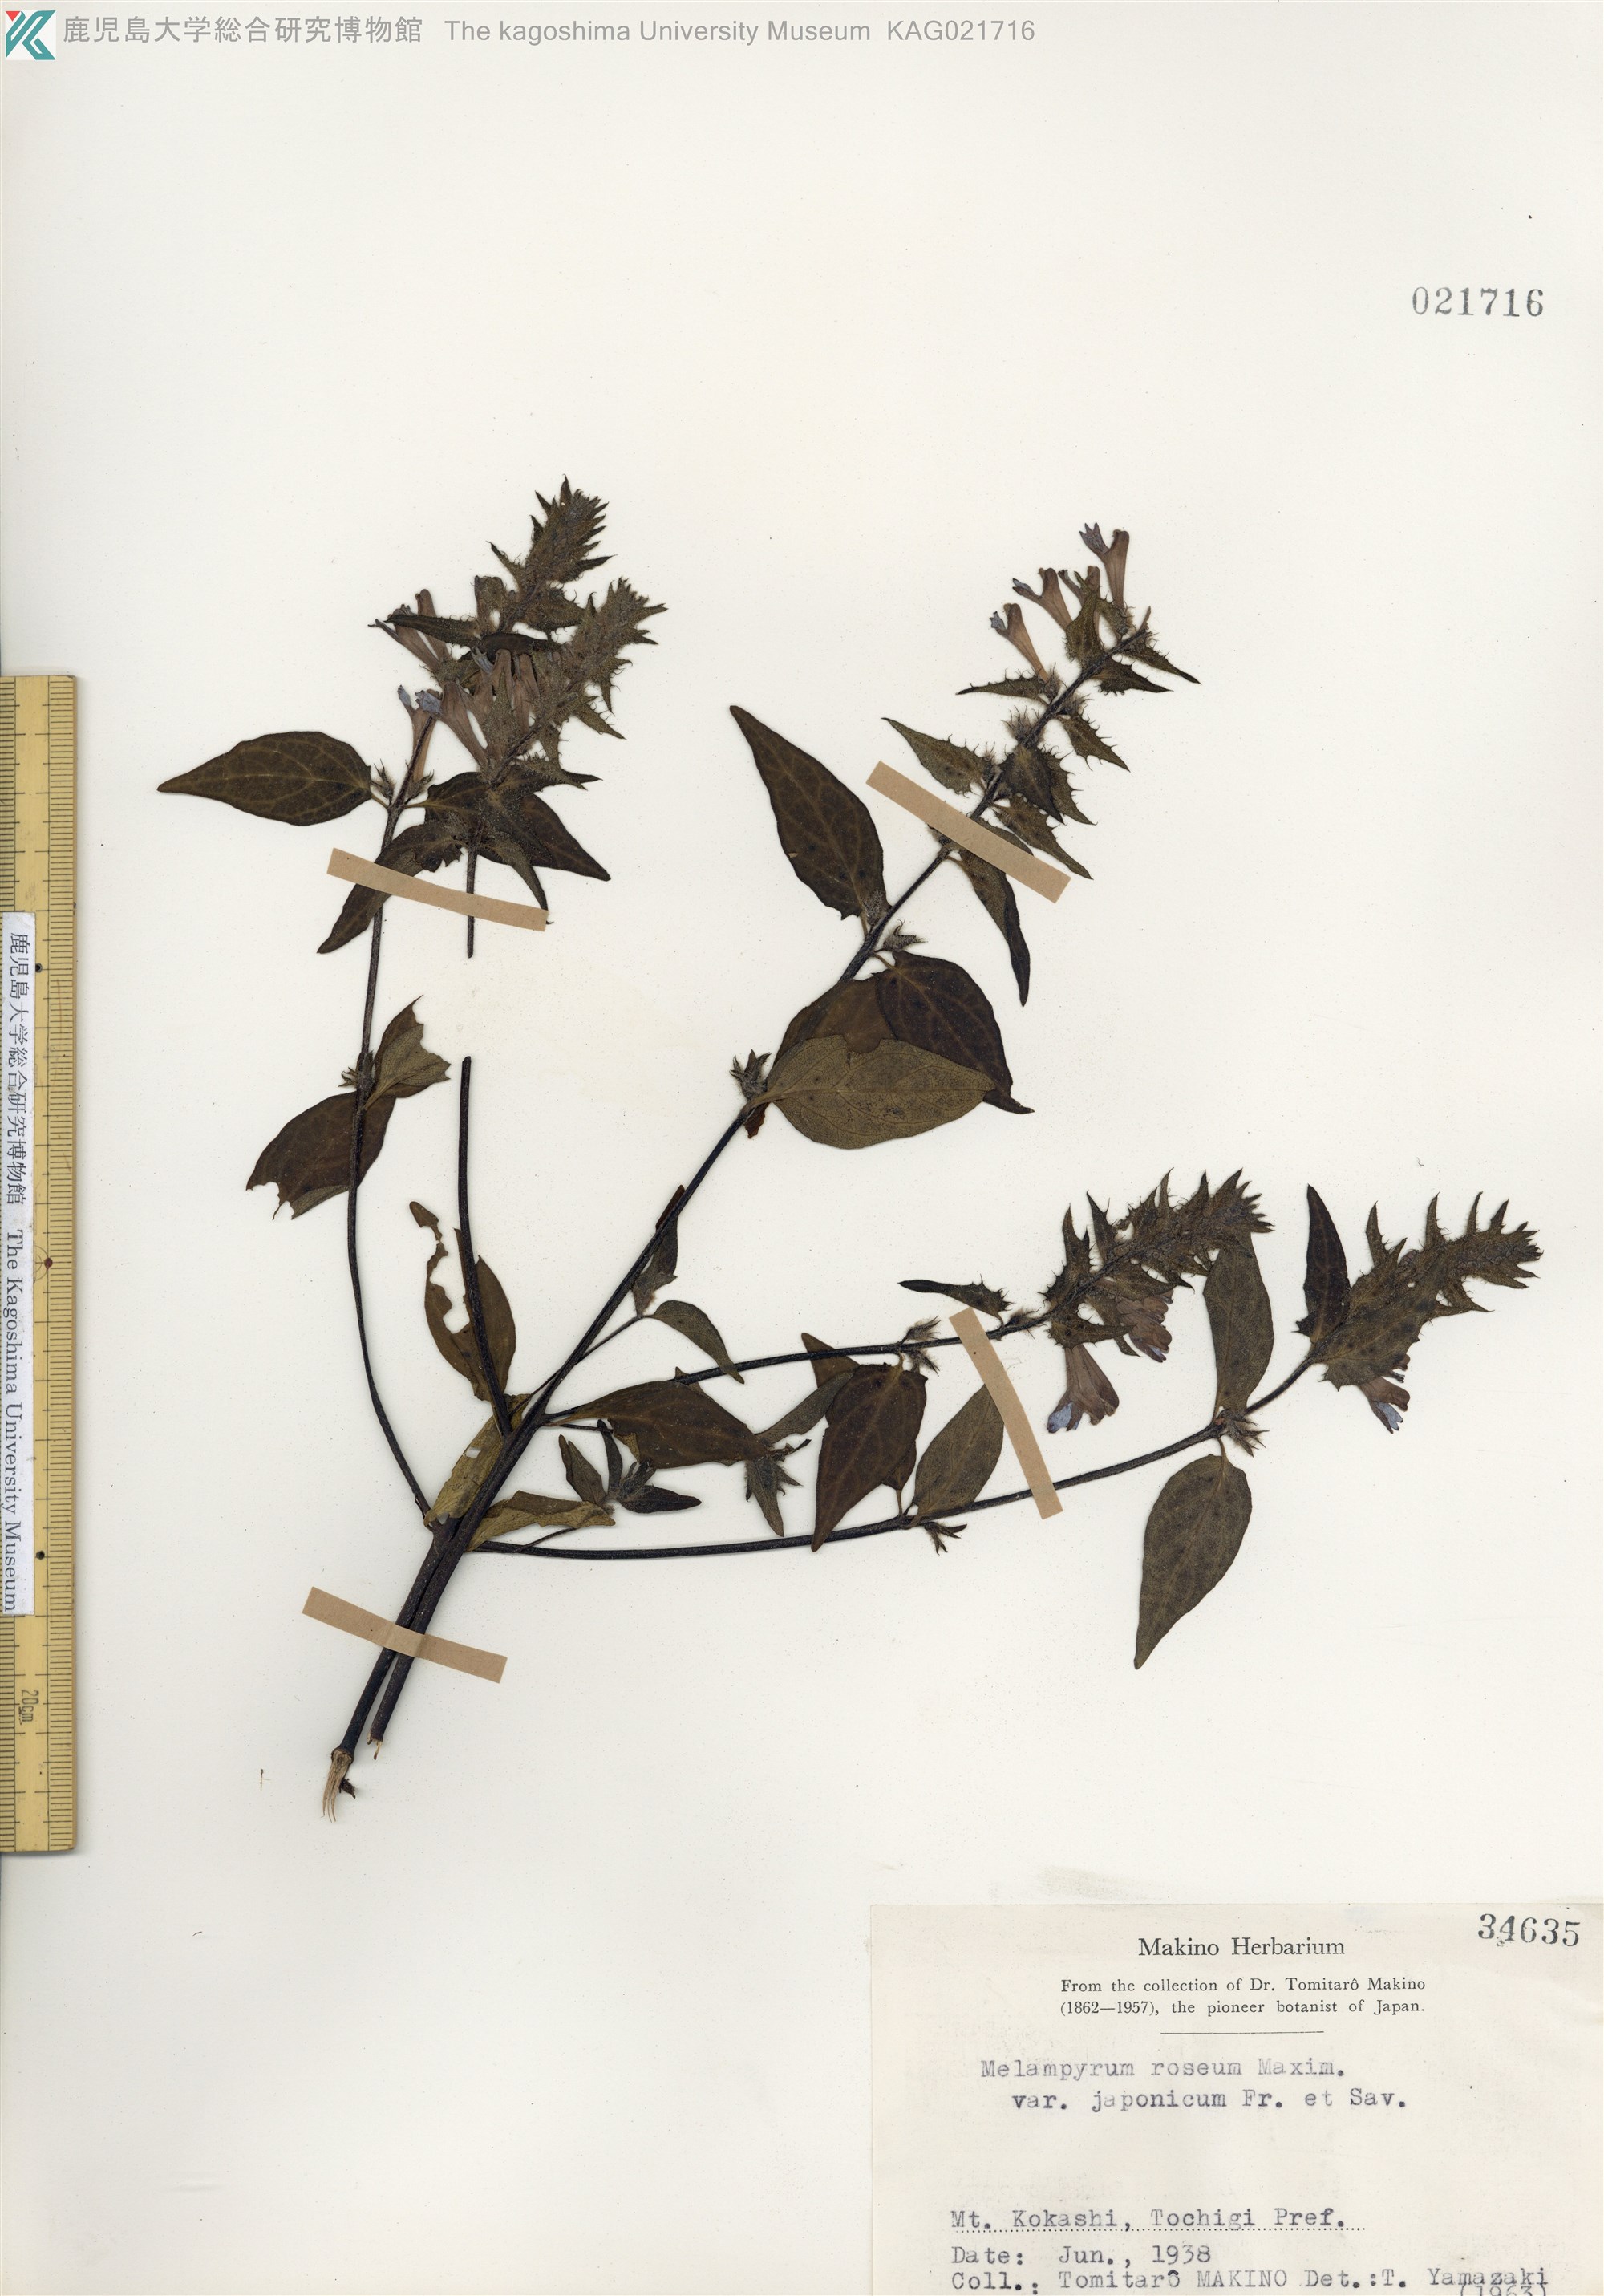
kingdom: Plantae
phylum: Tracheophyta
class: Magnoliopsida
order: Lamiales
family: Orobanchaceae
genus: Melampyrum
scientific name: Melampyrum roseum
